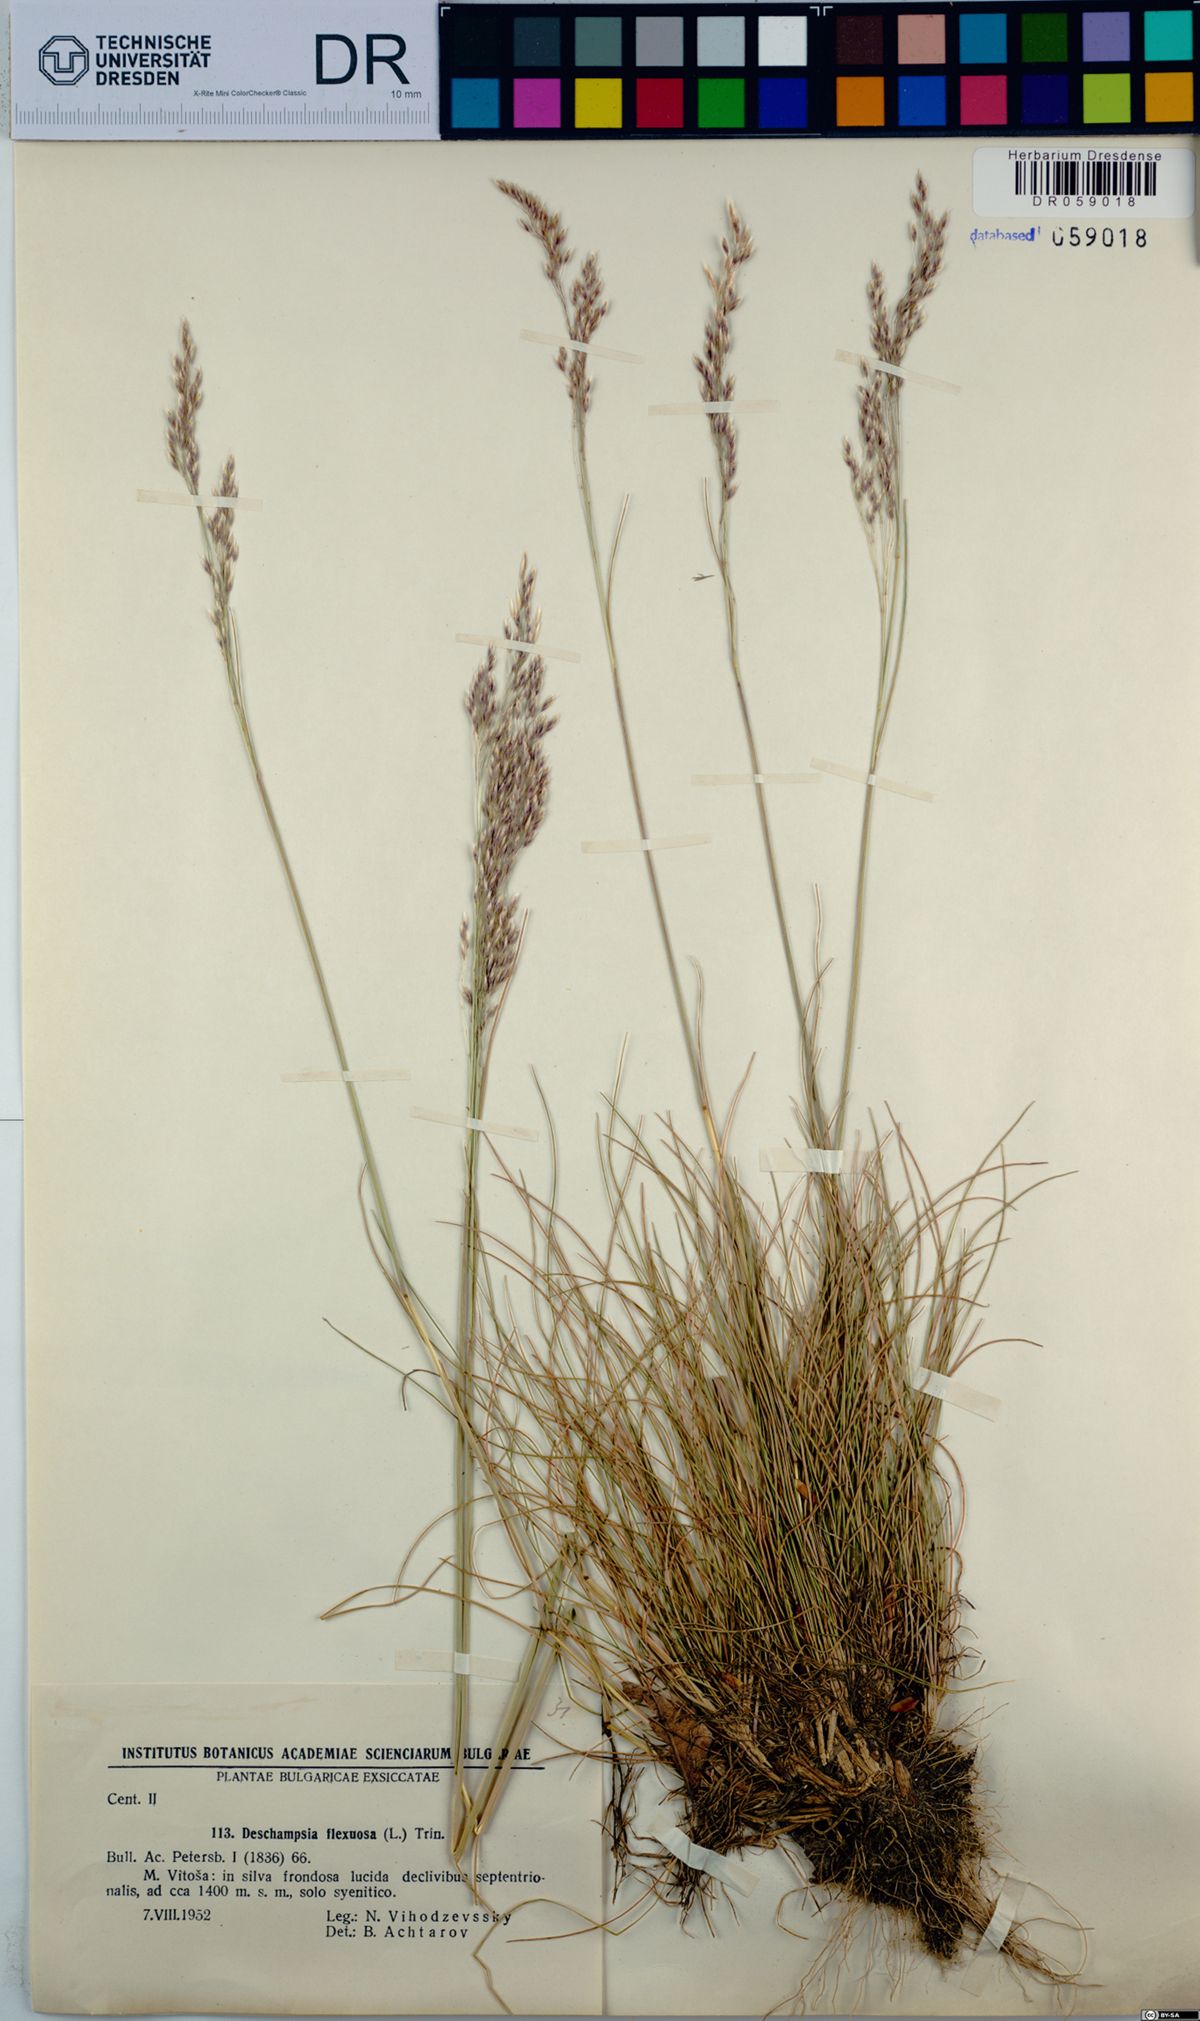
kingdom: Plantae
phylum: Tracheophyta
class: Liliopsida
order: Poales
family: Poaceae
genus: Avenella
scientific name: Avenella flexuosa
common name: Wavy hairgrass
